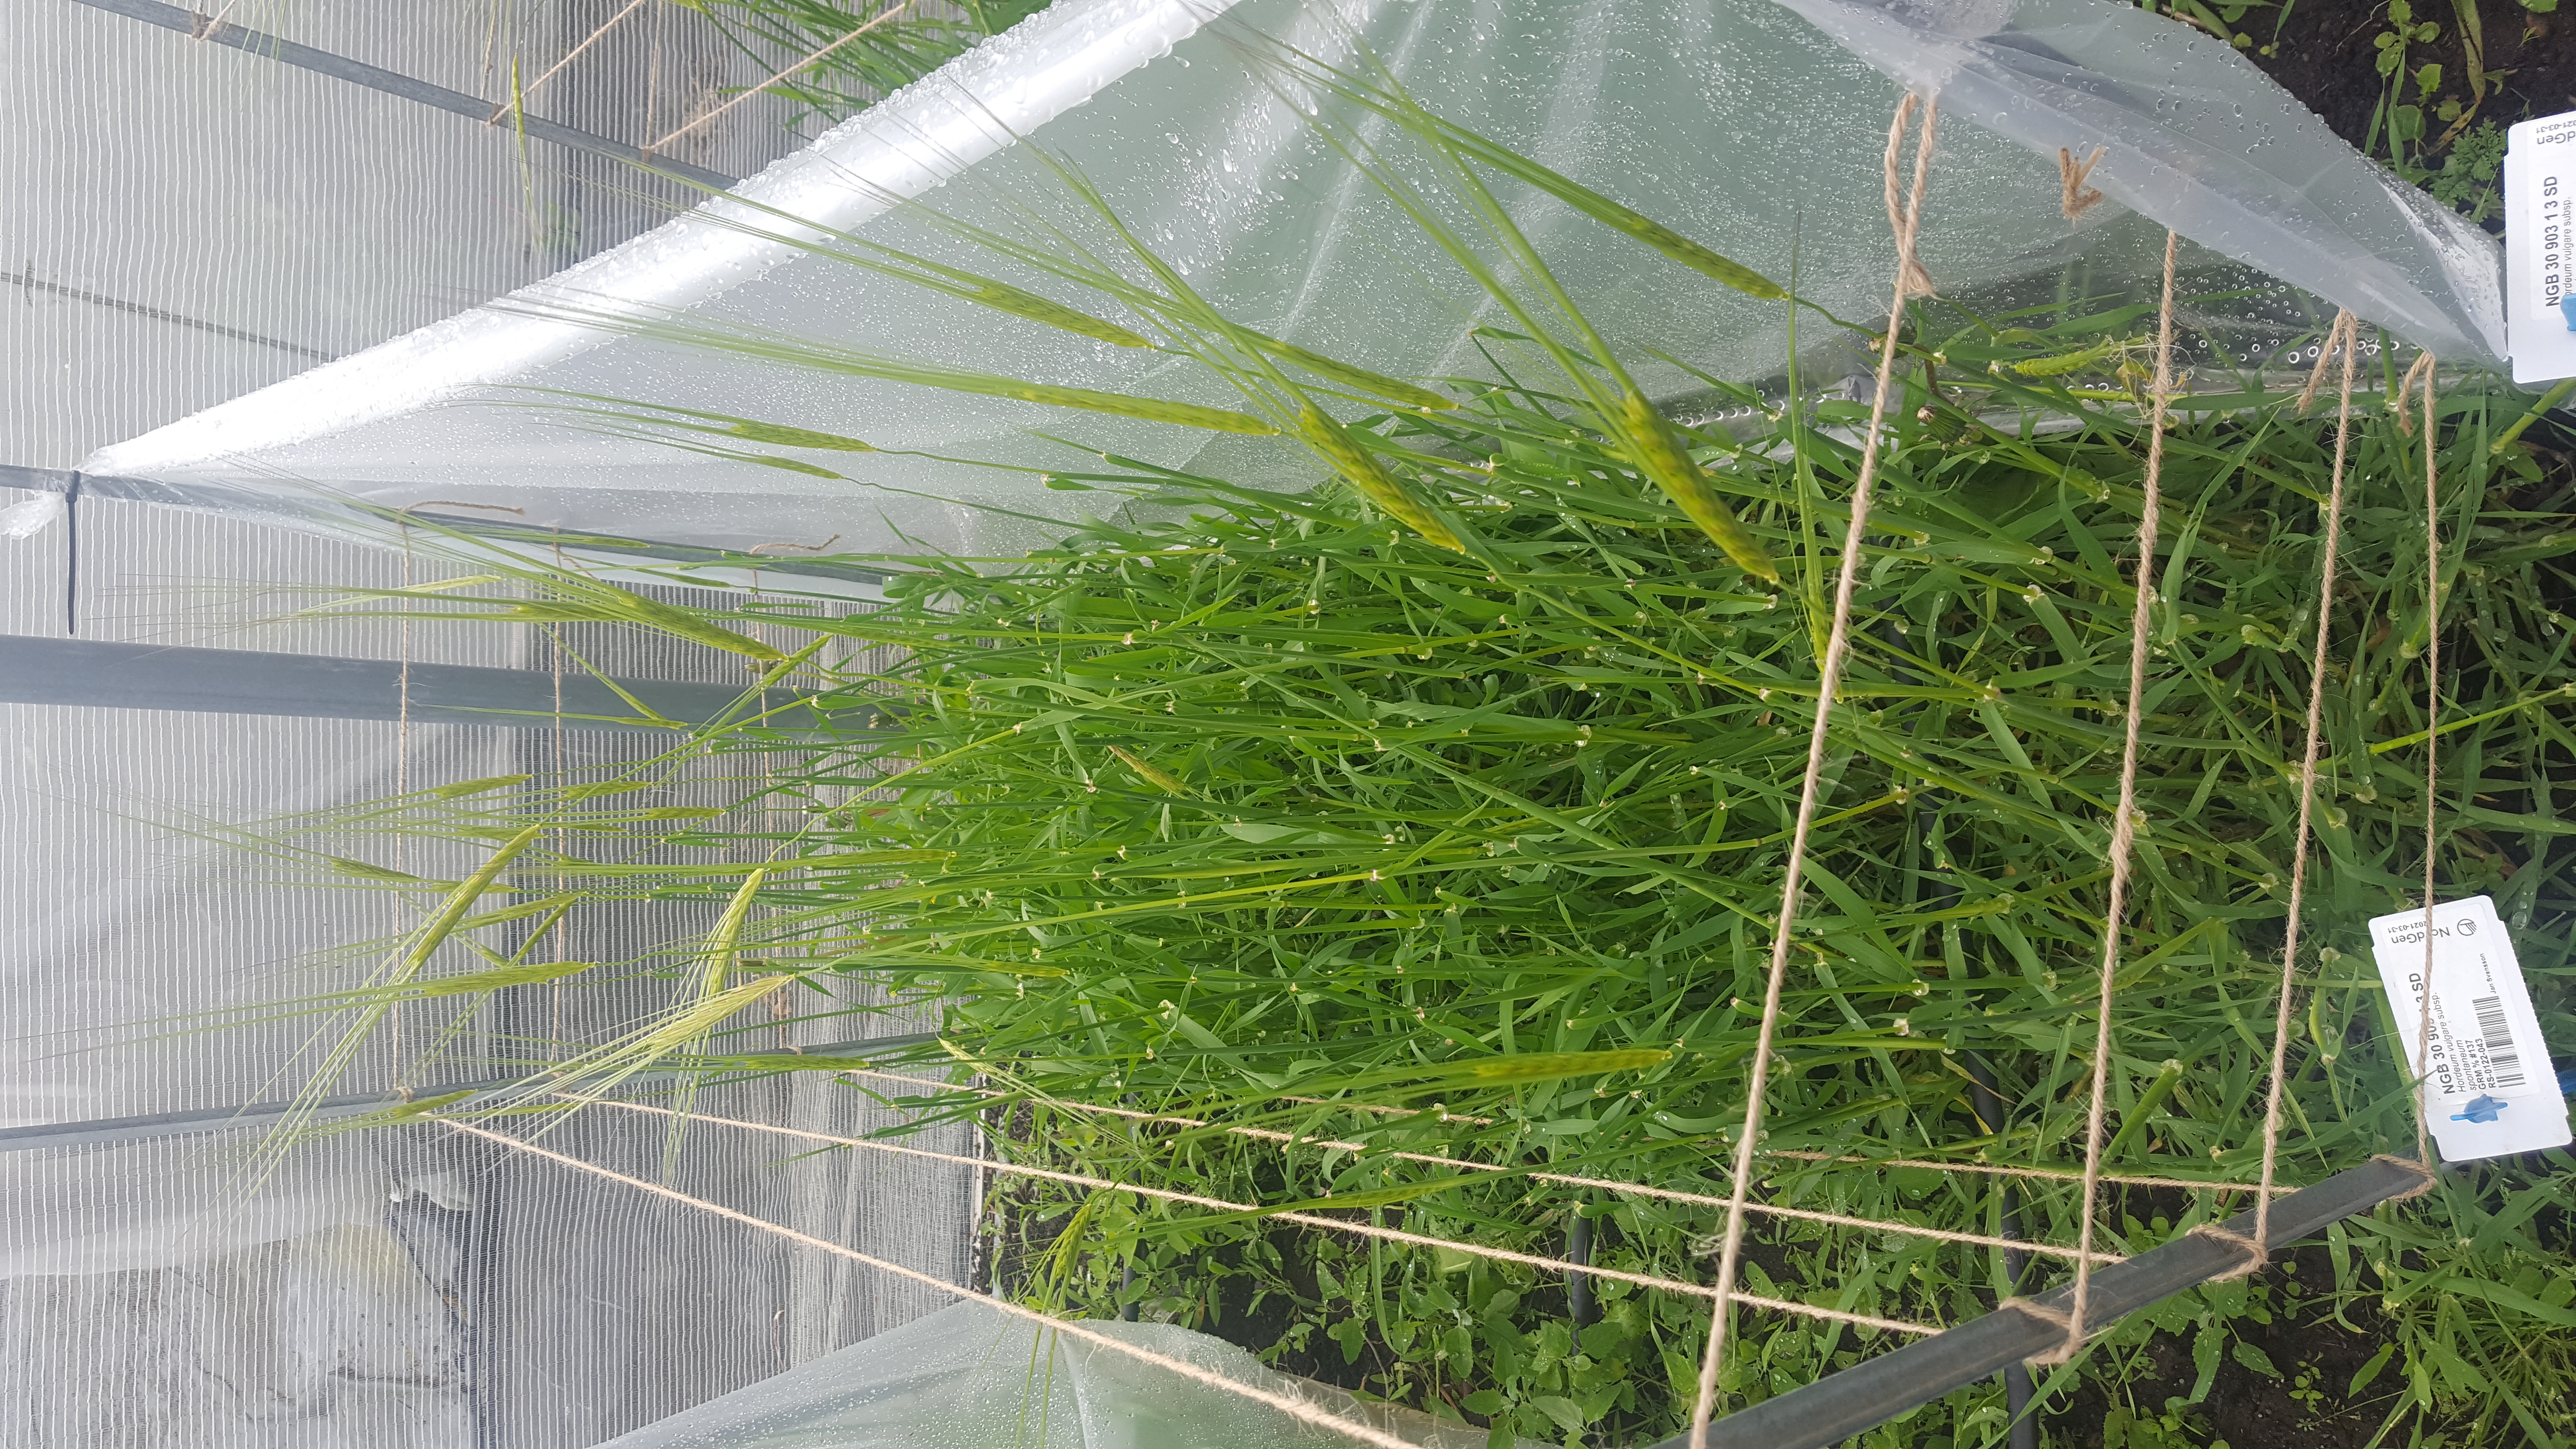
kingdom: Plantae
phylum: Tracheophyta
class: Liliopsida
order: Poales
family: Poaceae
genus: Hordeum
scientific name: Hordeum spontaneum
